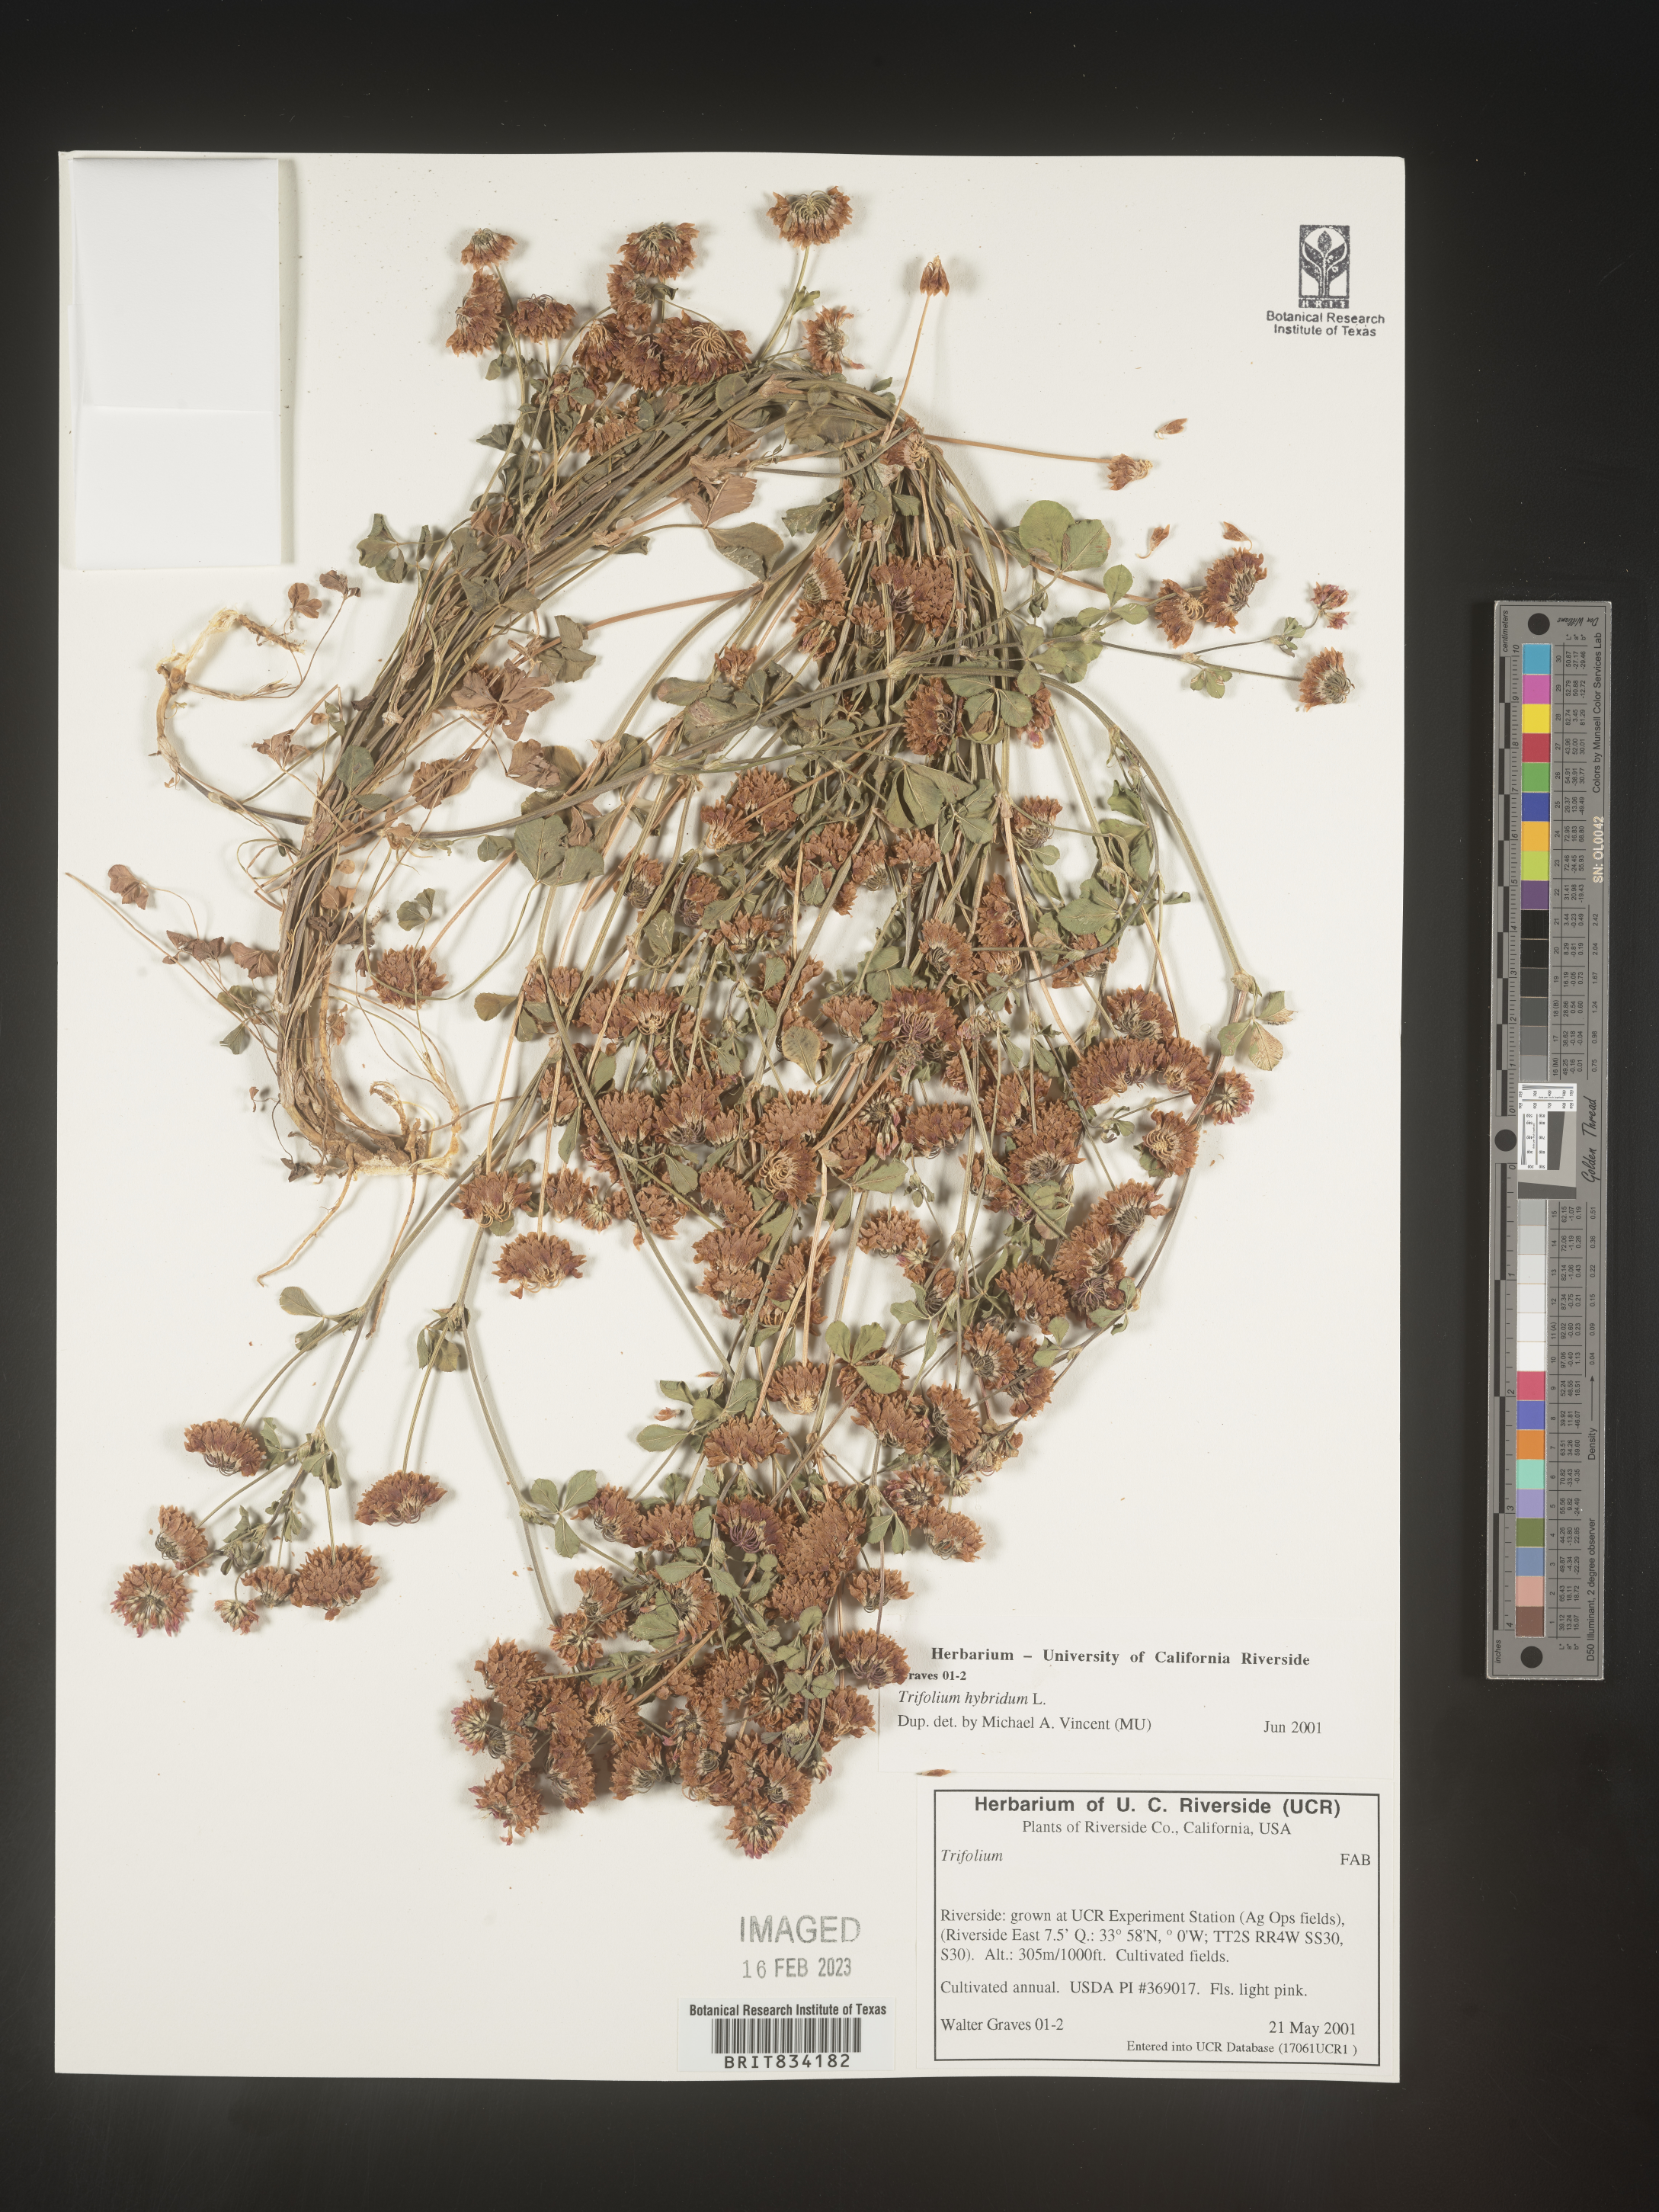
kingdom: Plantae
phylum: Tracheophyta
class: Magnoliopsida
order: Fabales
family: Fabaceae
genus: Trifolium
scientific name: Trifolium hybridum
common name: Alsike clover
